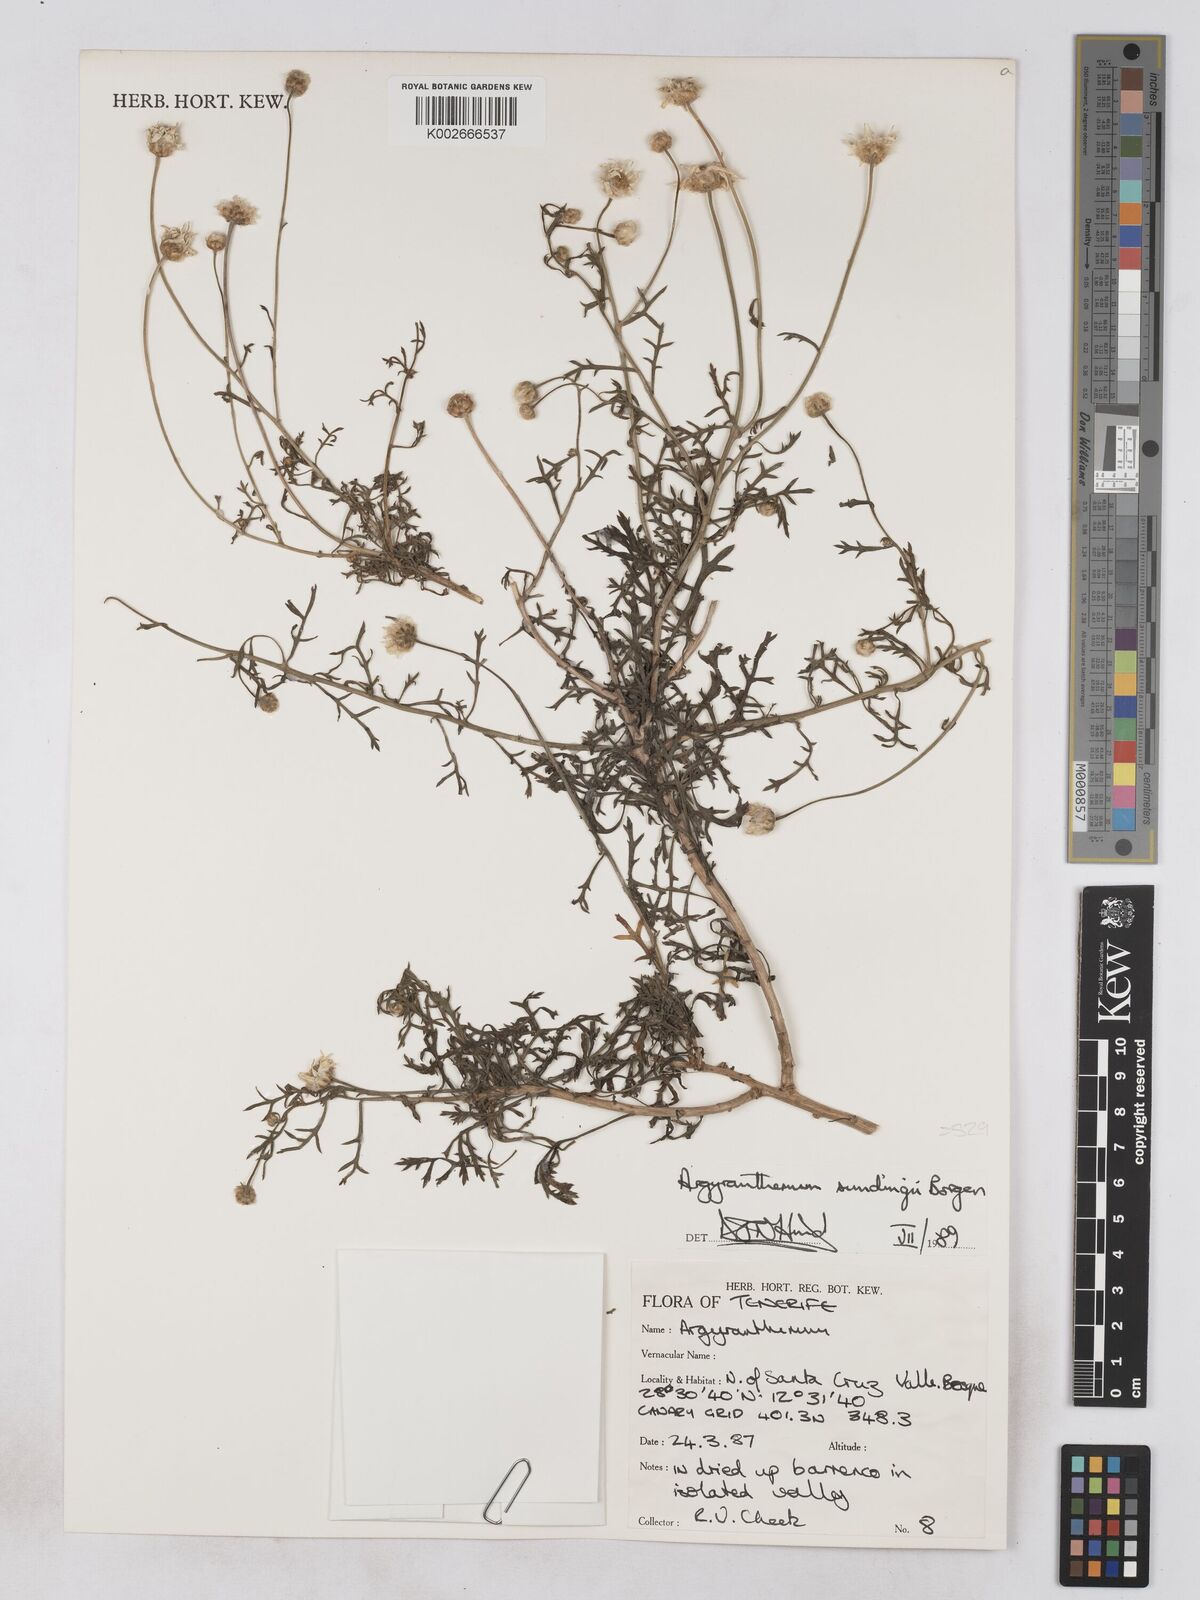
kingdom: Plantae
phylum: Tracheophyta
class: Magnoliopsida
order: Asterales
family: Asteraceae
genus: Argyranthemum
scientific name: Argyranthemum sundingii
